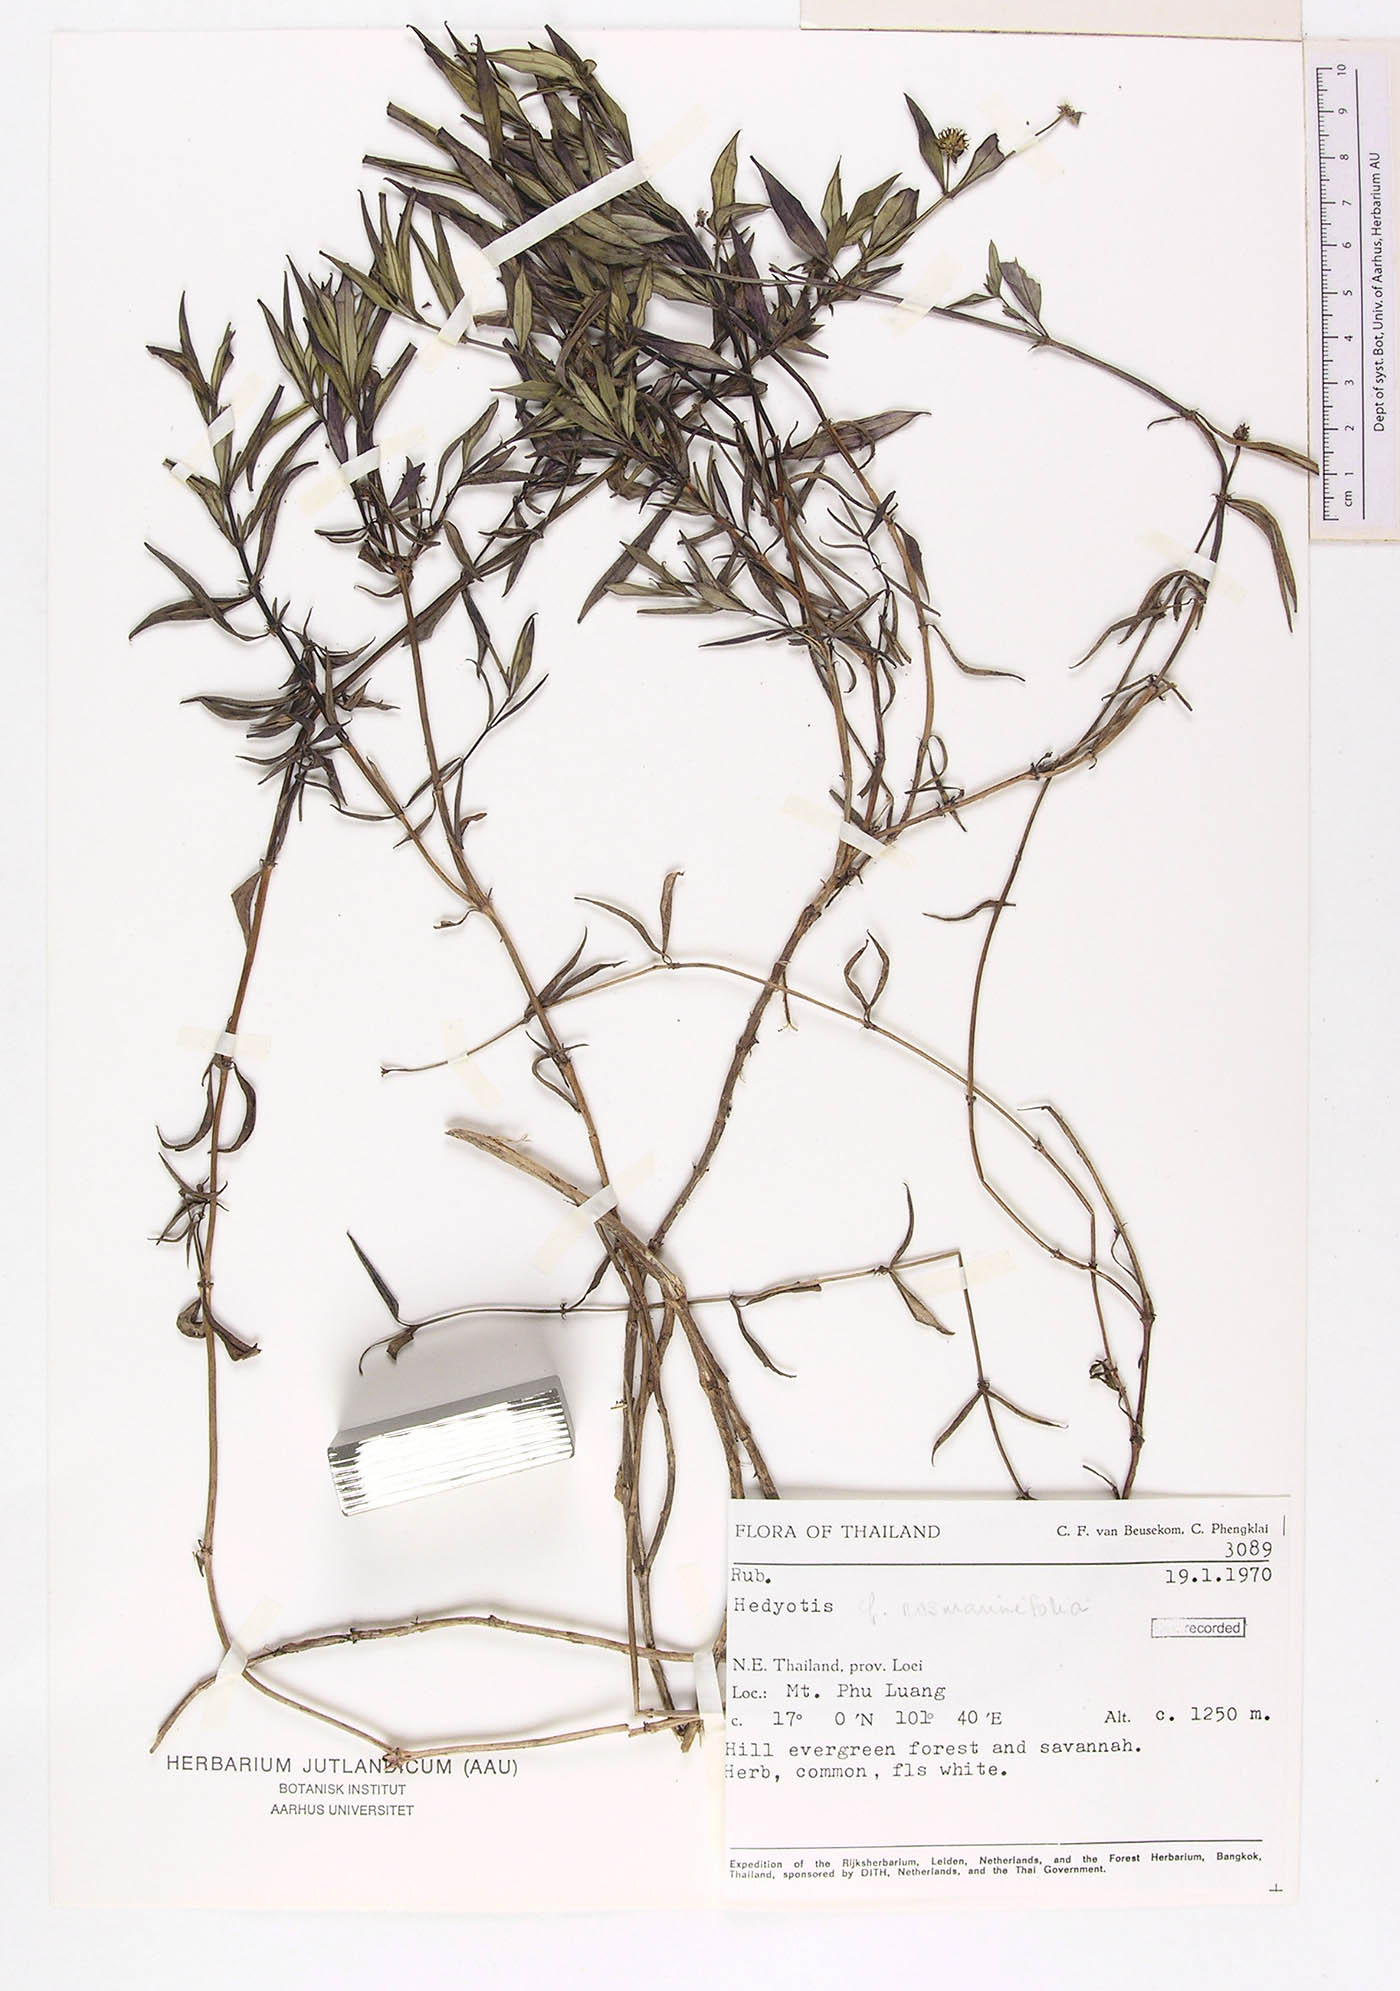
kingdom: Plantae
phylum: Tracheophyta
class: Magnoliopsida
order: Gentianales
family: Rubiaceae
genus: Hedyotis
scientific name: Hedyotis rosmarinifolia
